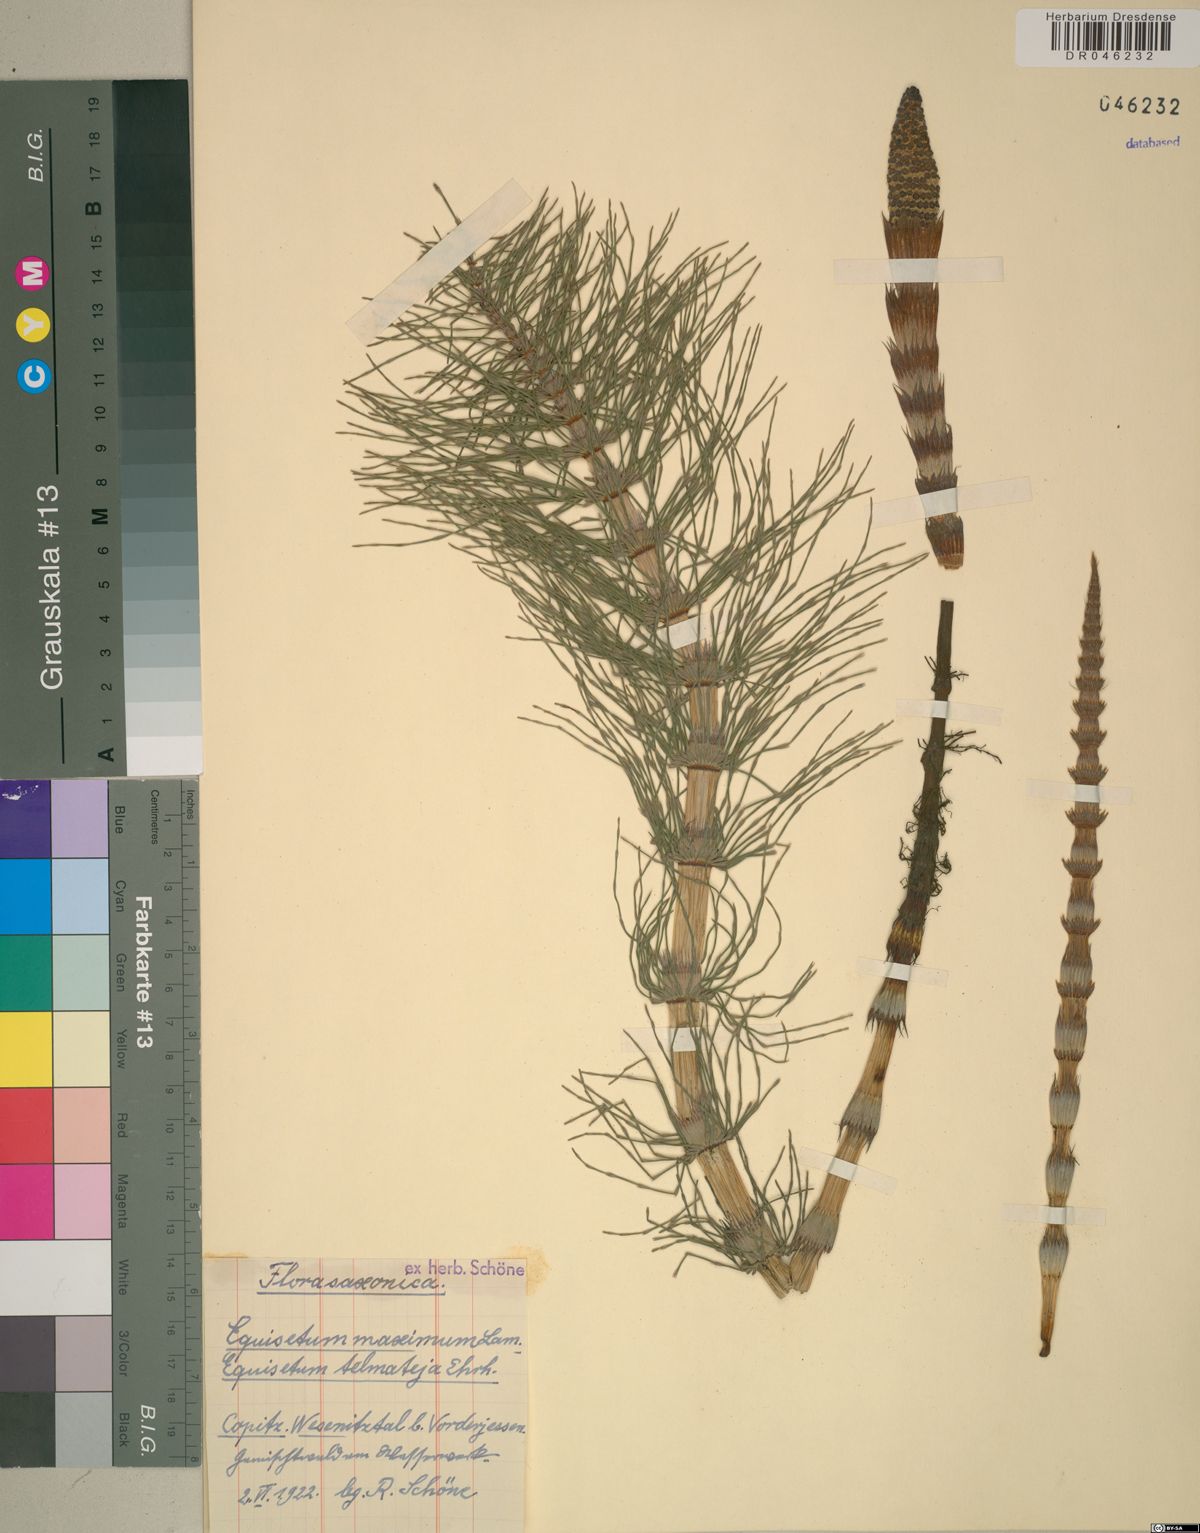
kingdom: Plantae
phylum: Tracheophyta
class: Polypodiopsida
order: Equisetales
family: Equisetaceae
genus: Equisetum
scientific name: Equisetum telmateia
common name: Great horsetail
